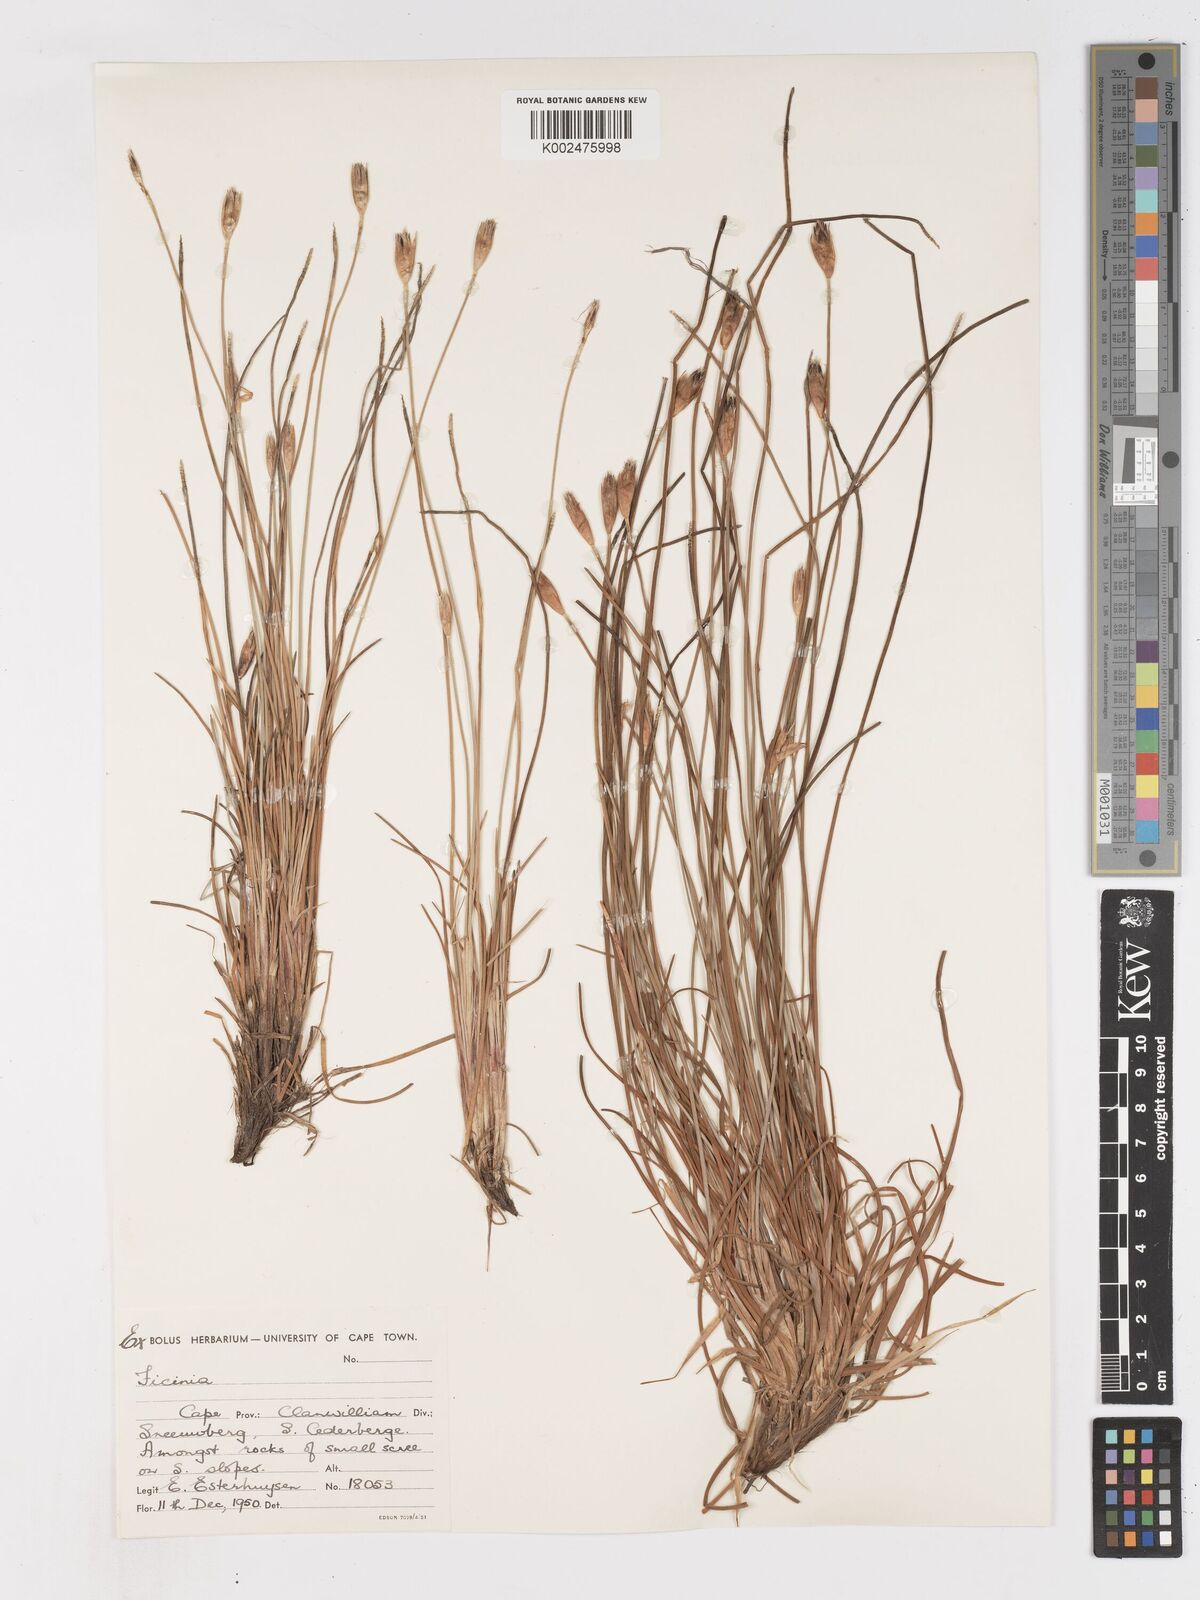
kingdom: Plantae
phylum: Tracheophyta
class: Liliopsida
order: Poales
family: Cyperaceae
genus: Ficinia
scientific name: Ficinia gydomontana
